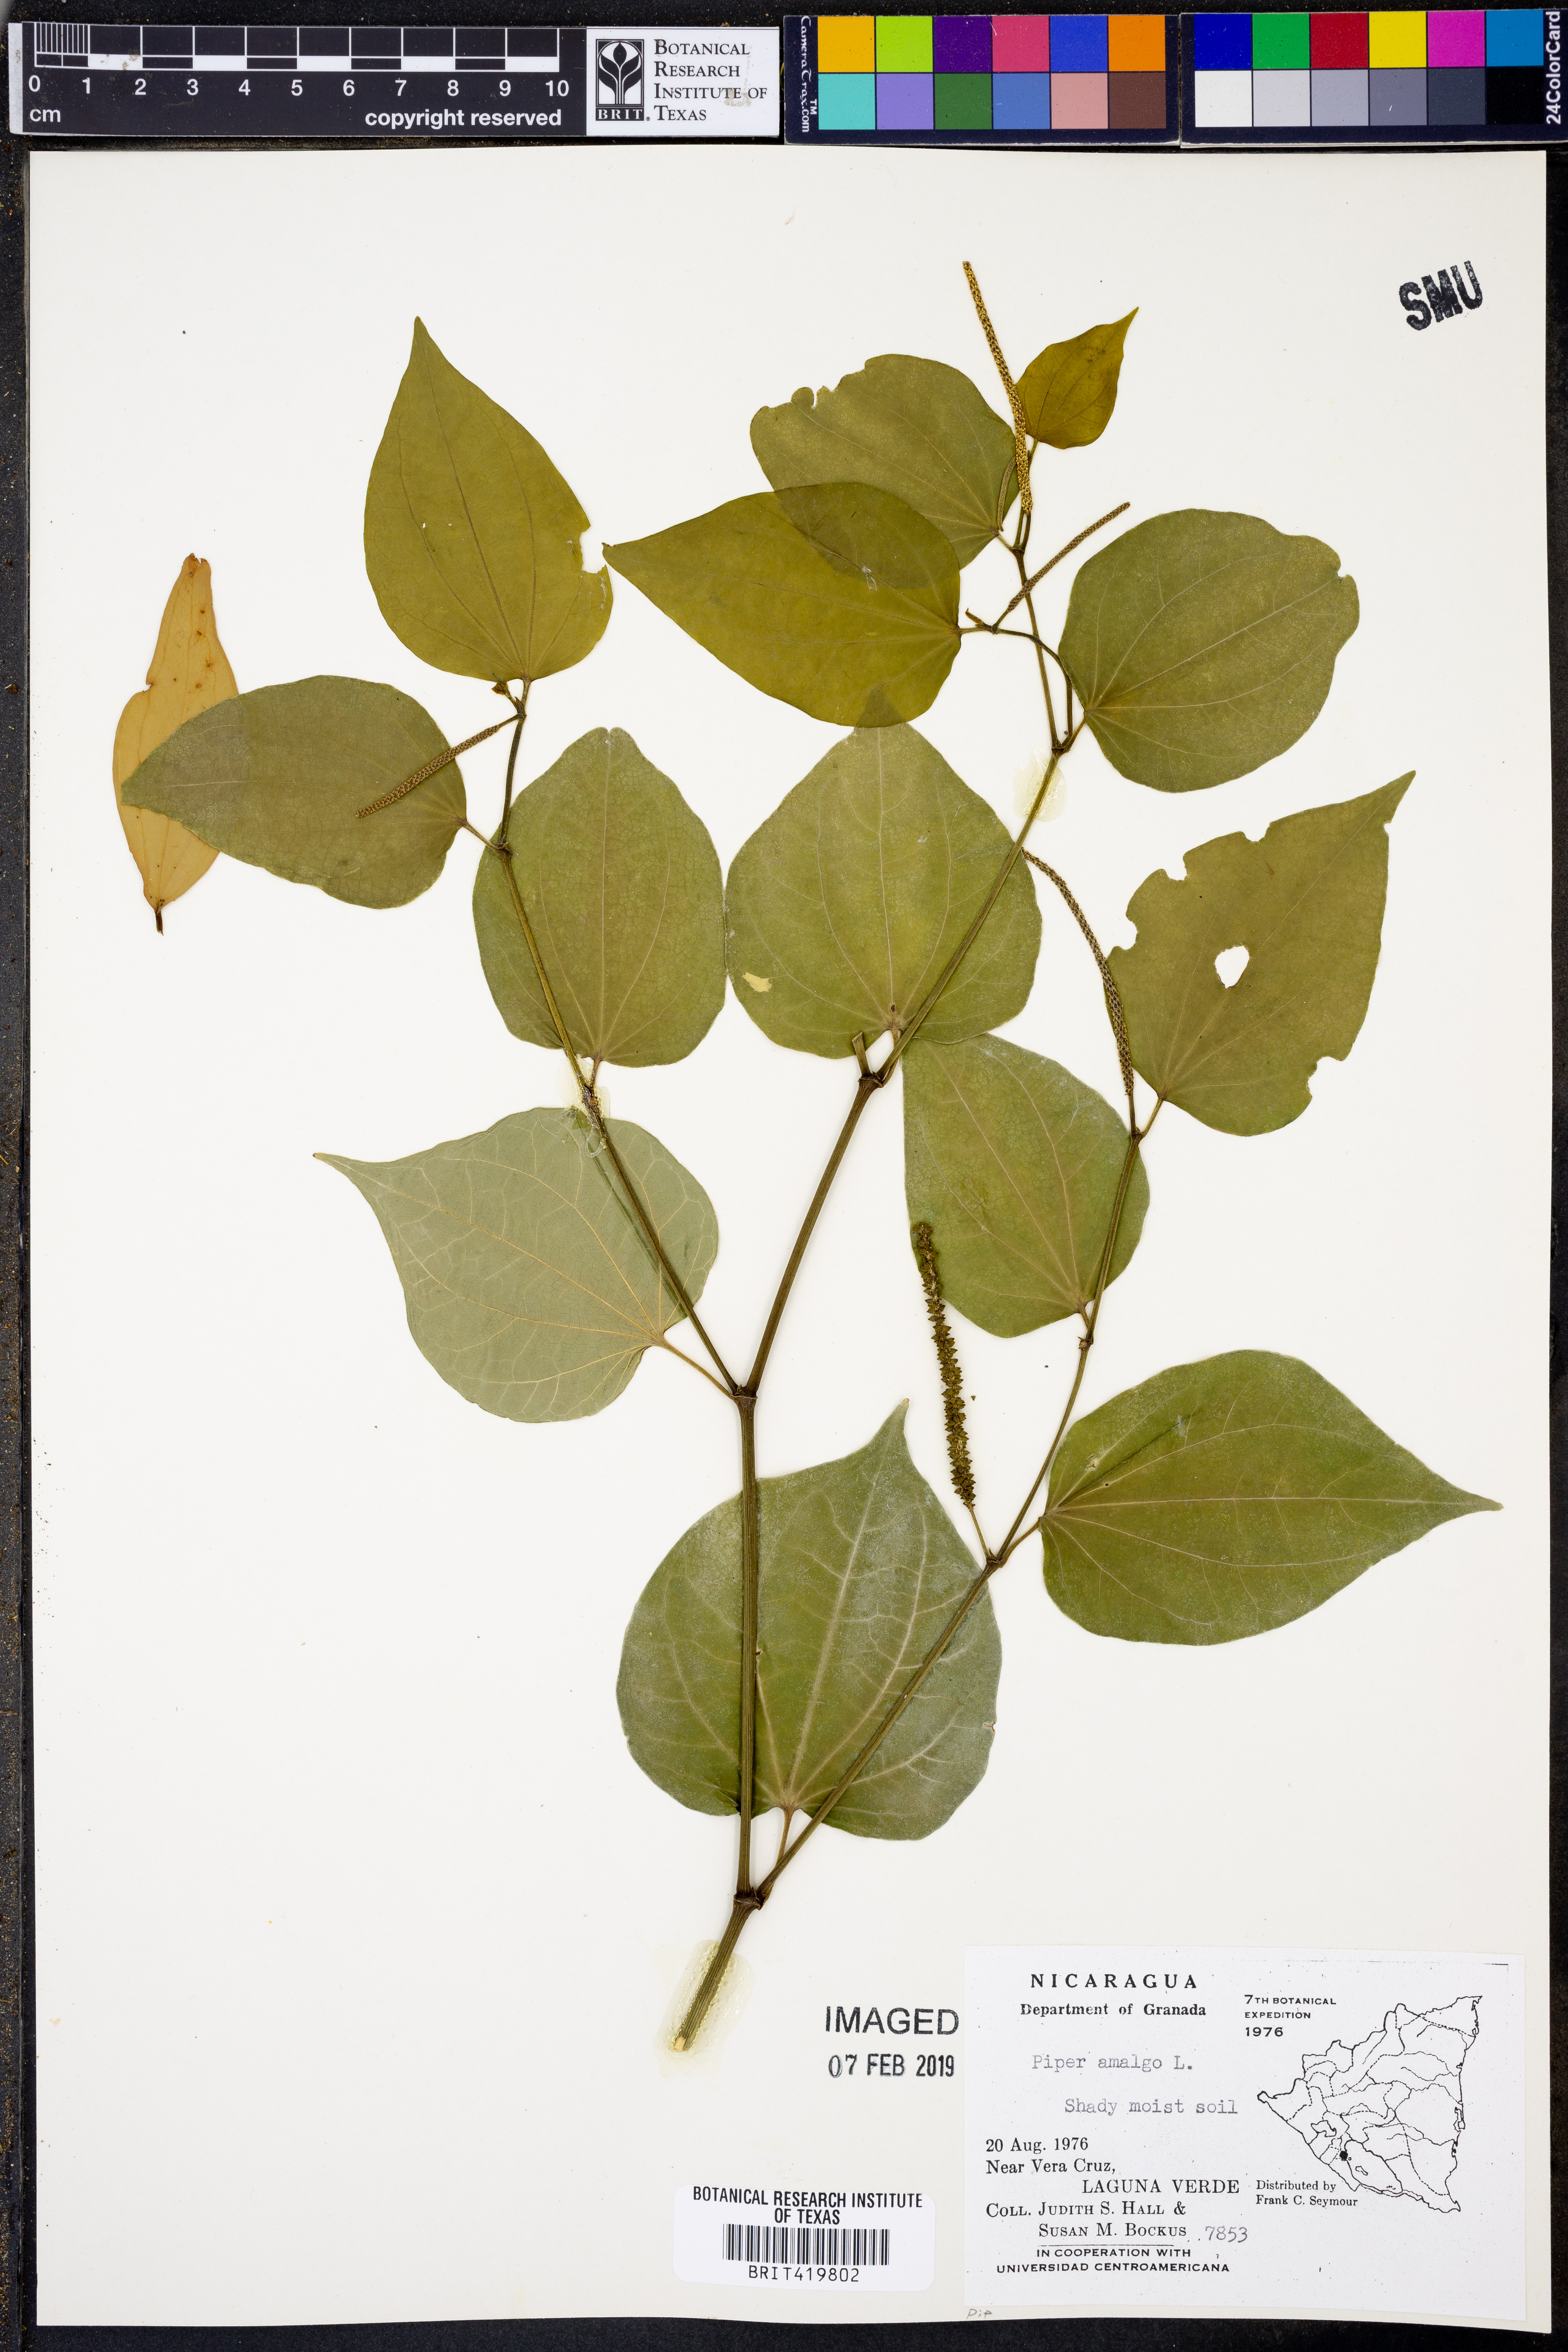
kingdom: Plantae
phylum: Tracheophyta
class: Magnoliopsida
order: Piperales
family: Piperaceae
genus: Piper
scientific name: Piper amalago
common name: Pepper-elder
